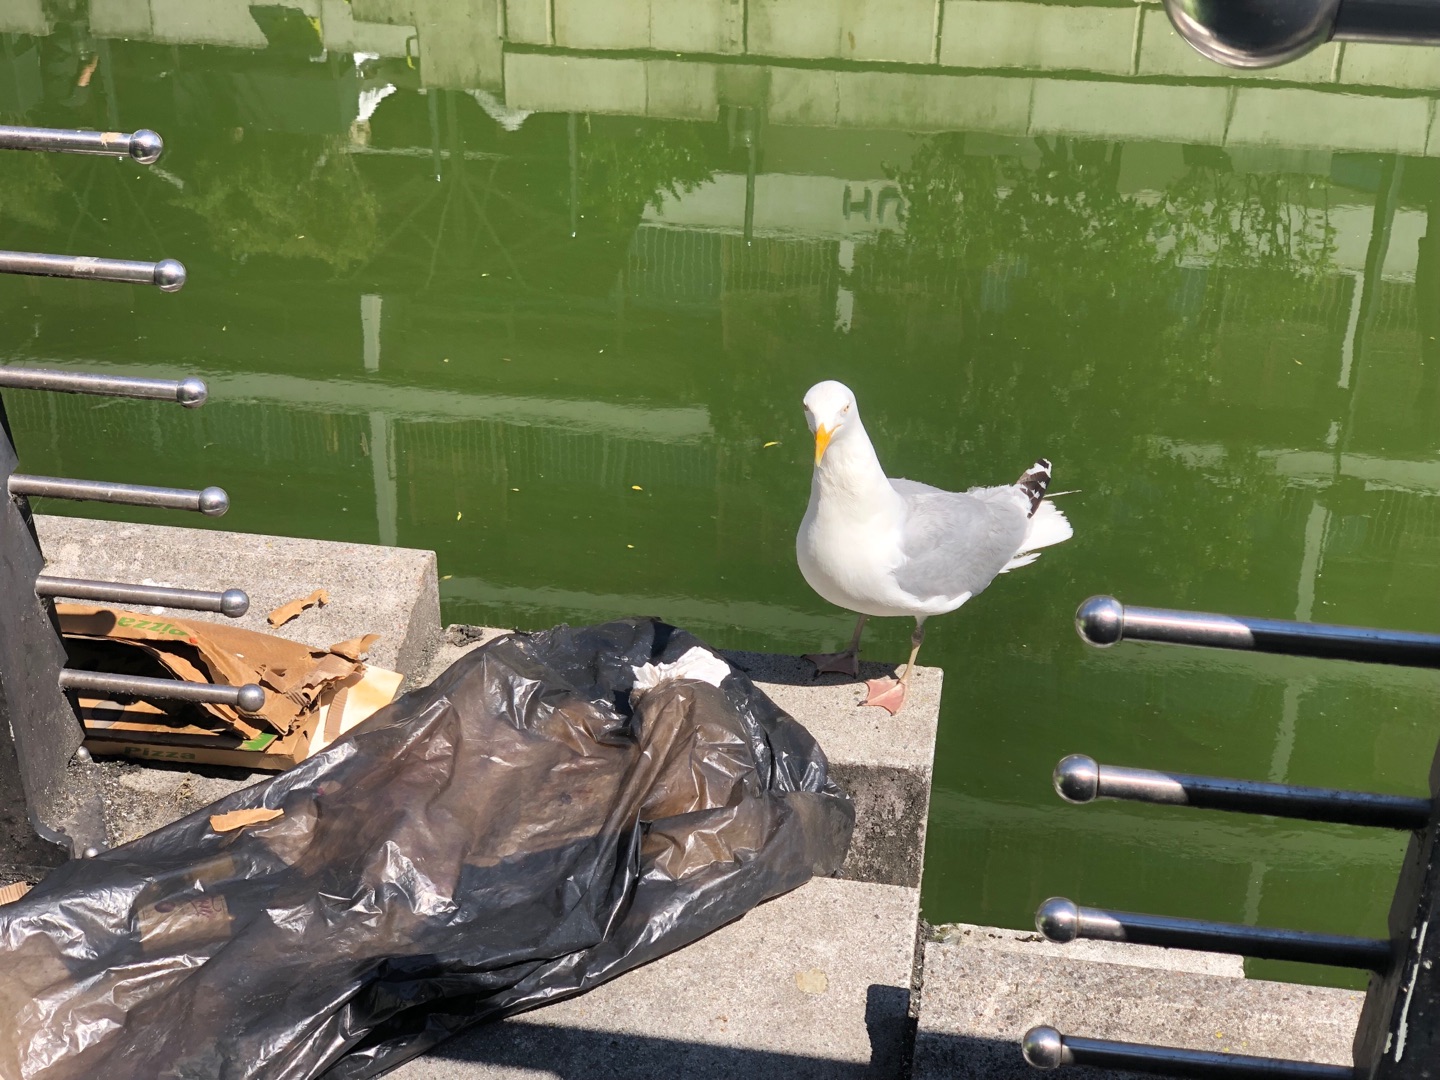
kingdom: Animalia
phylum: Chordata
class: Aves
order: Charadriiformes
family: Laridae
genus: Larus
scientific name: Larus argentatus
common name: Sølvmåge
